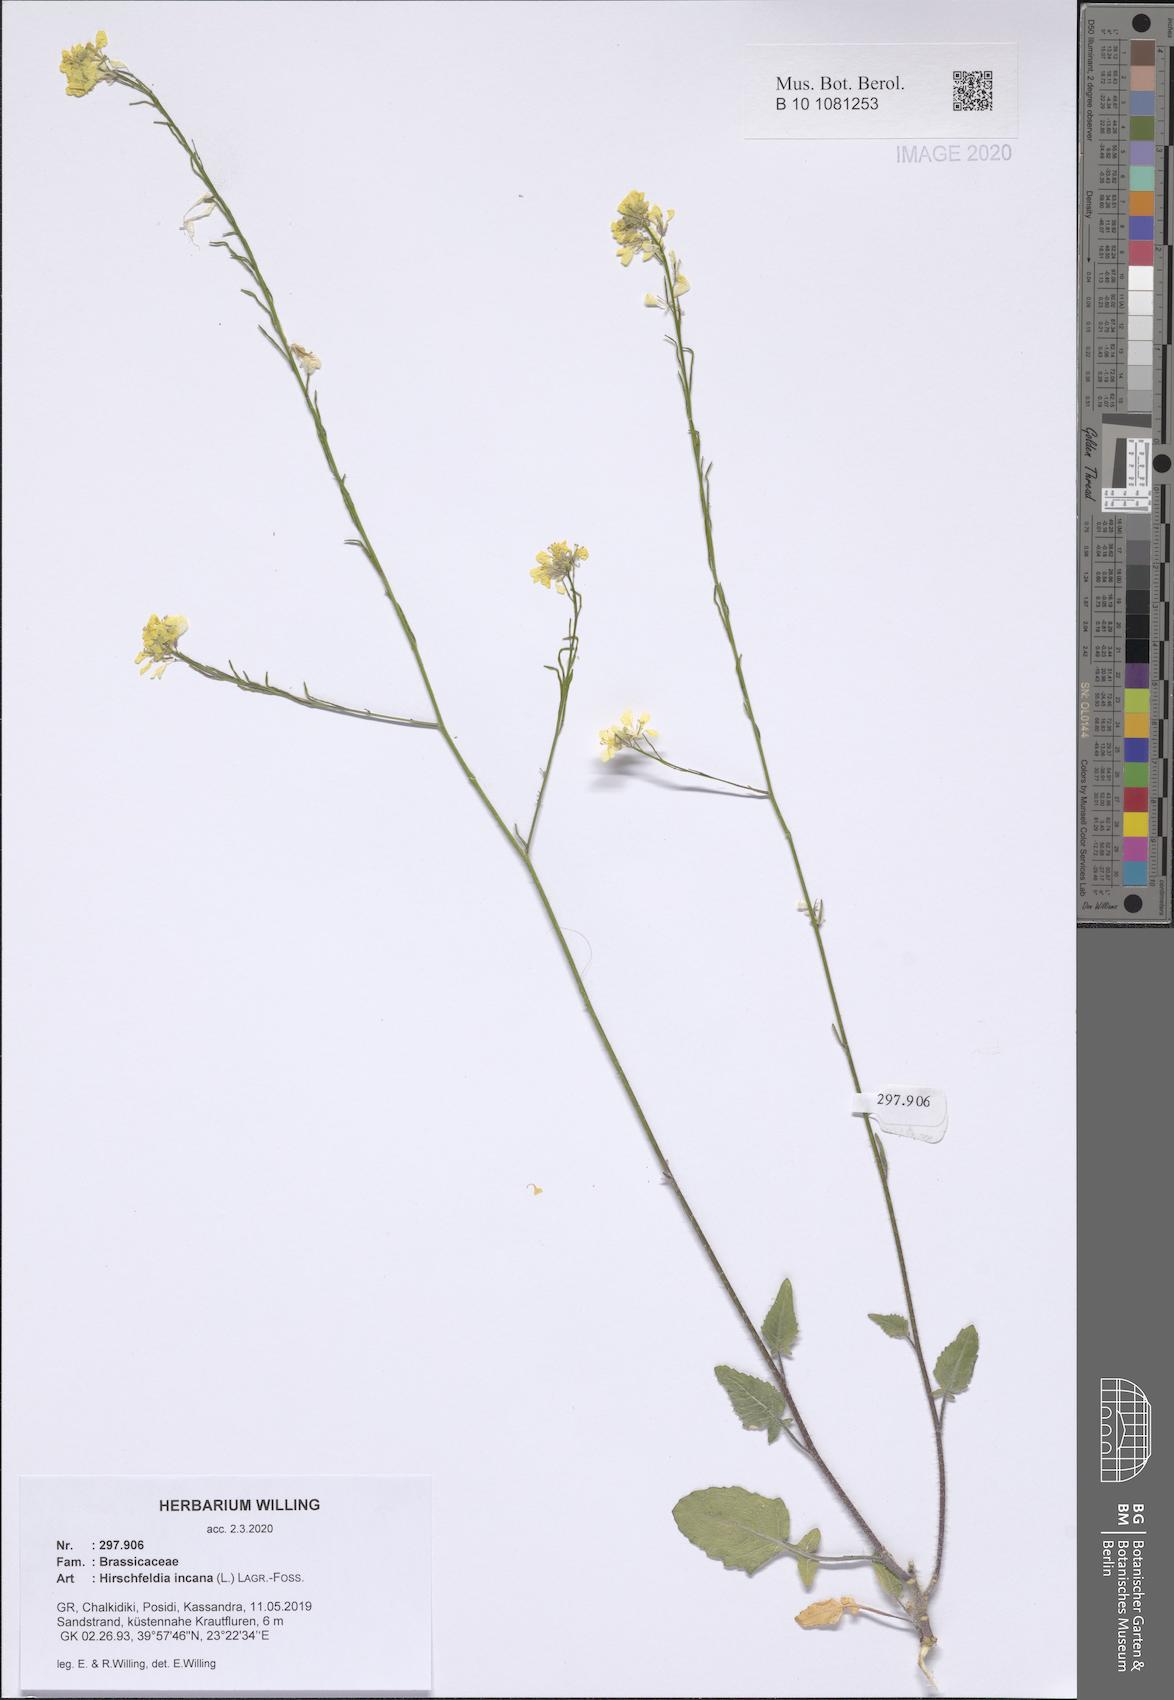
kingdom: Plantae
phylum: Tracheophyta
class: Magnoliopsida
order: Brassicales
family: Brassicaceae
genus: Hirschfeldia
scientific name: Hirschfeldia incana
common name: Hoary mustard
